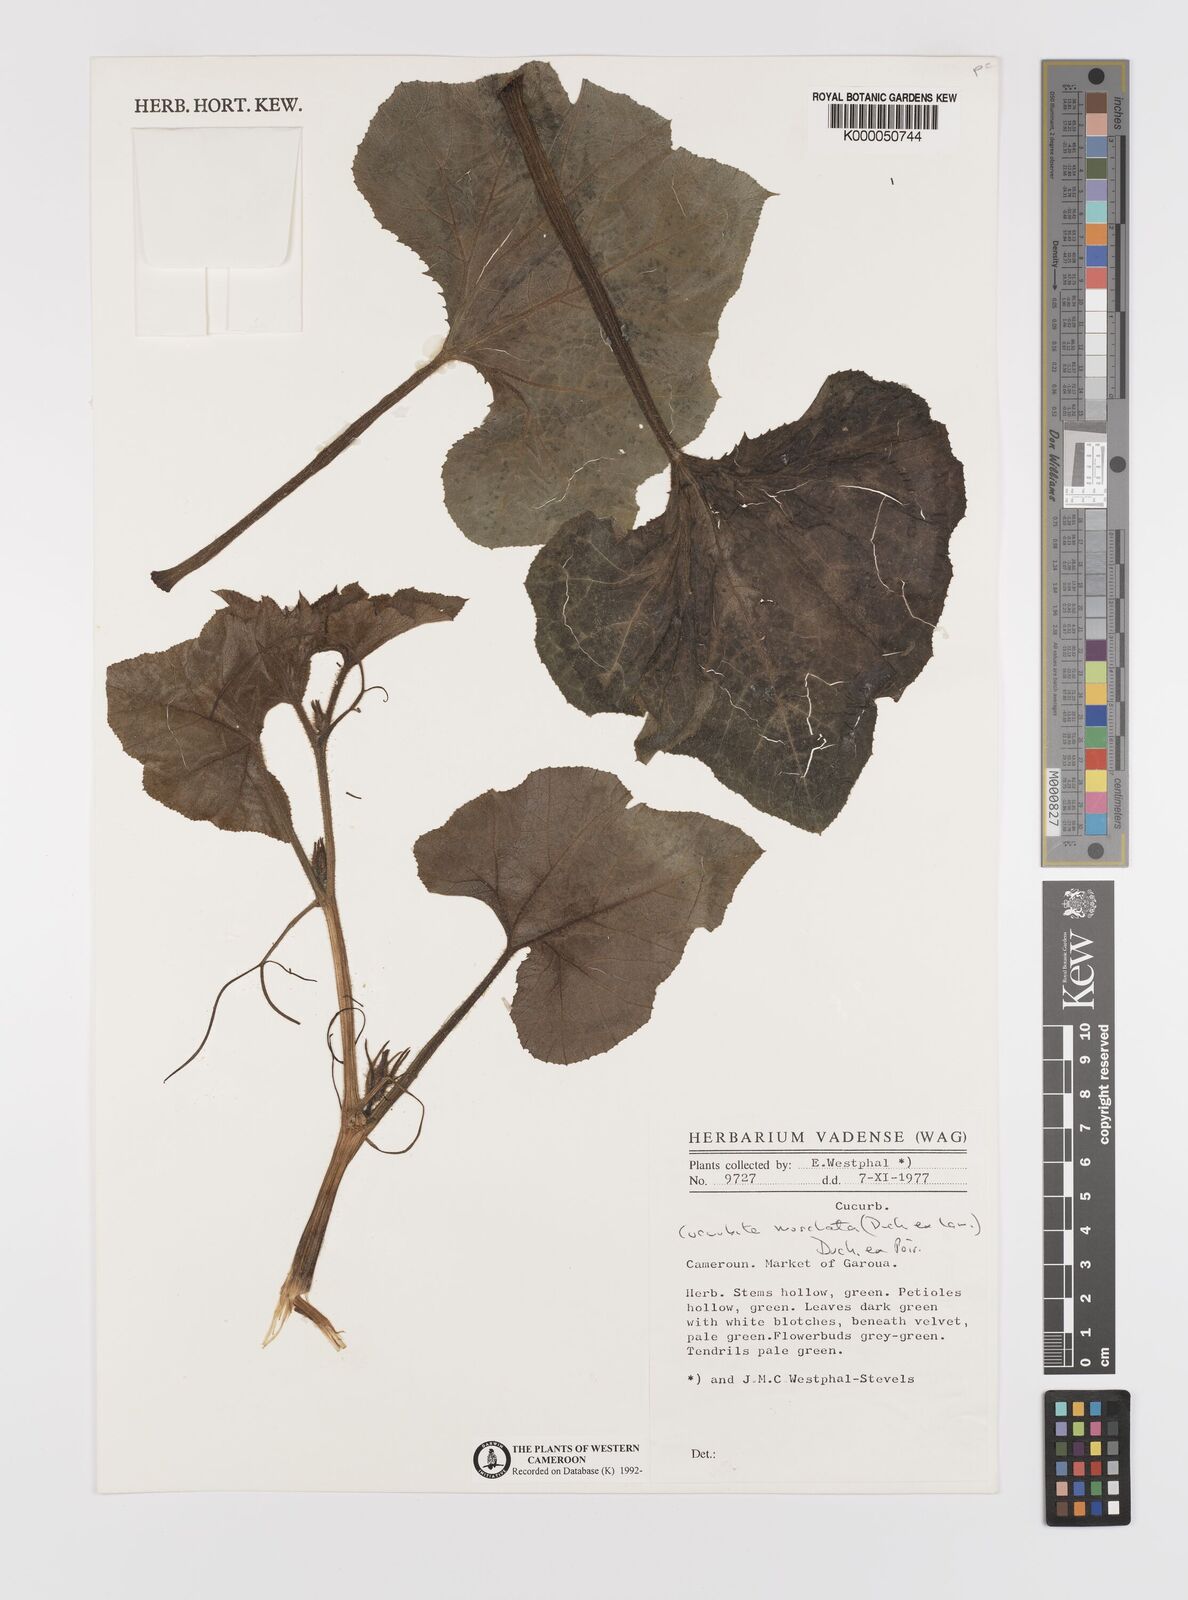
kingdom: Plantae
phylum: Tracheophyta
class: Magnoliopsida
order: Cucurbitales
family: Cucurbitaceae
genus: Cucurbita
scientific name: Cucurbita
